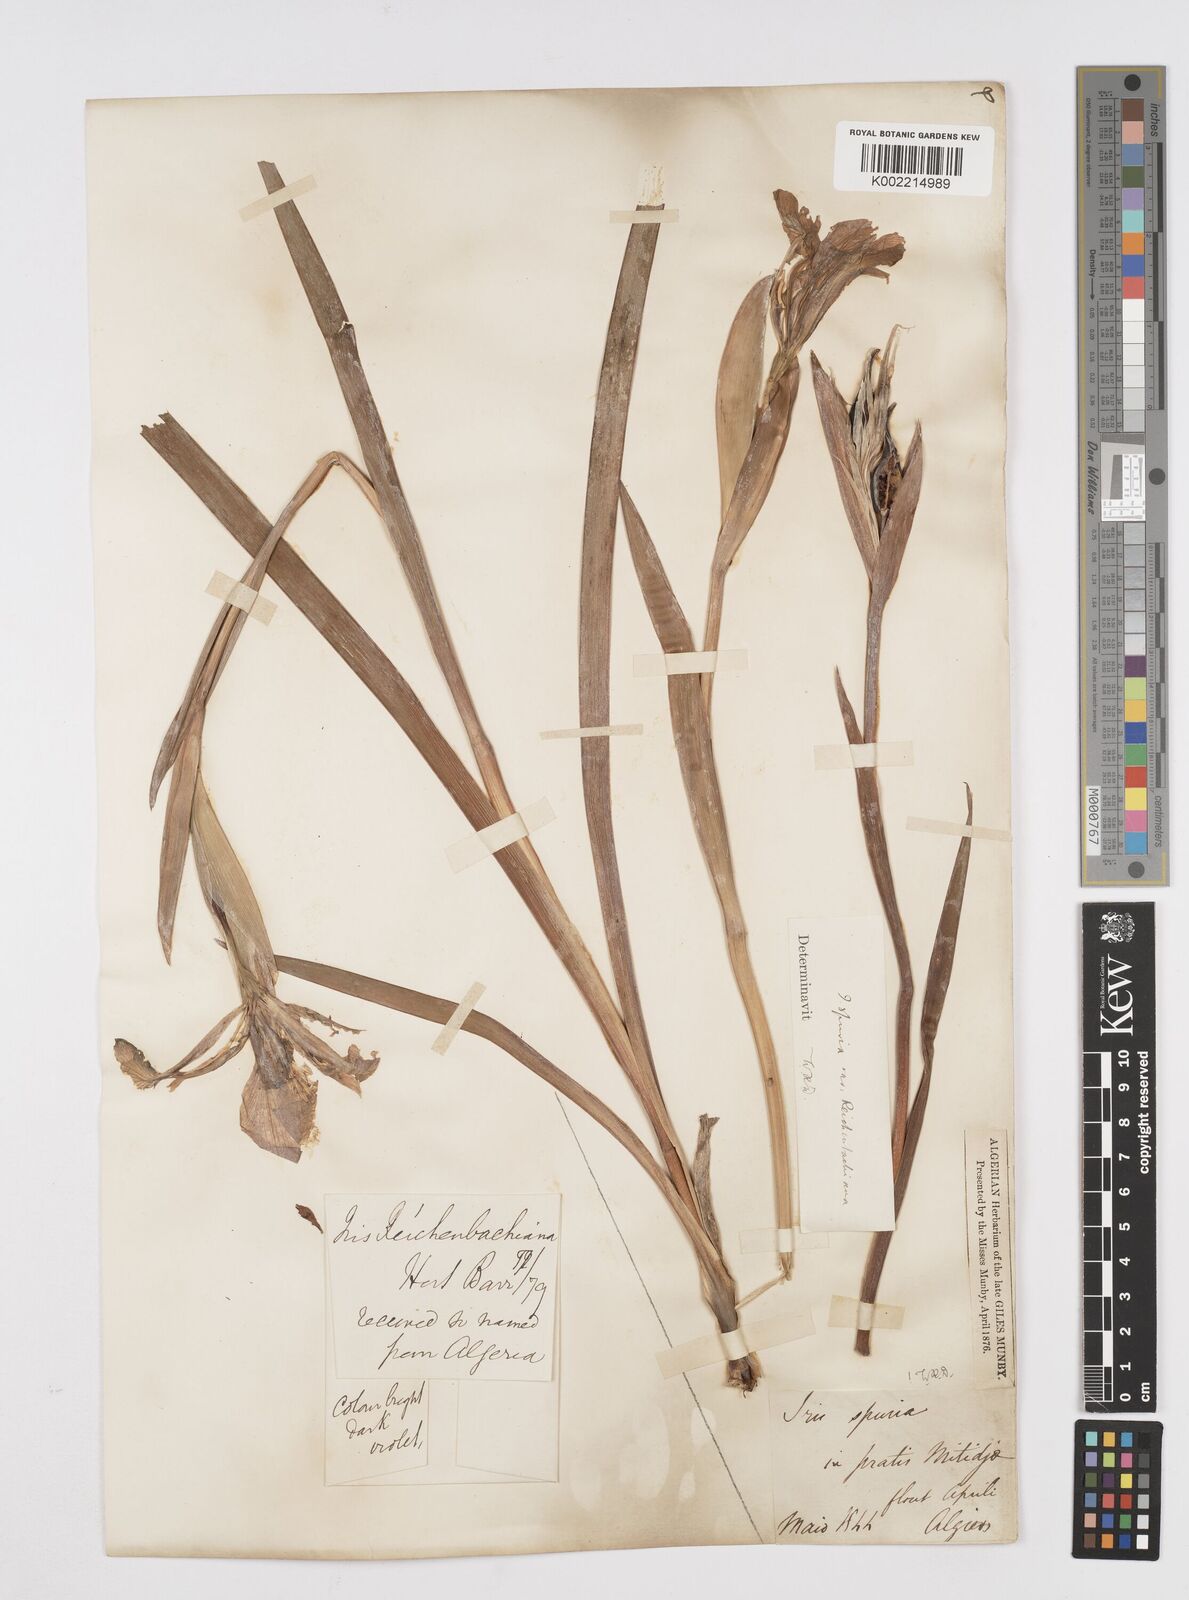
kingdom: Plantae
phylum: Tracheophyta
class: Liliopsida
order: Asparagales
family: Iridaceae
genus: Iris
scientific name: Iris spuria
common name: Blue iris
